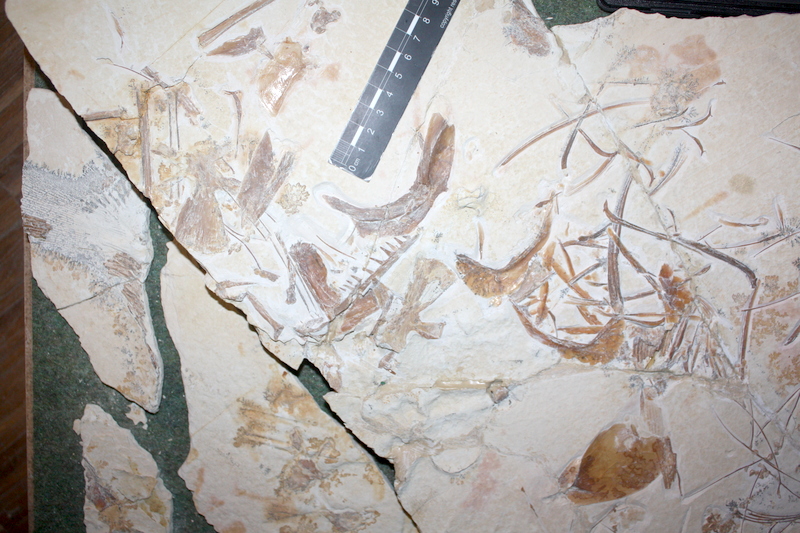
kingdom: Animalia
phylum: Chordata
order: Amiiformes
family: Caturidae
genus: Caturus
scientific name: Caturus
